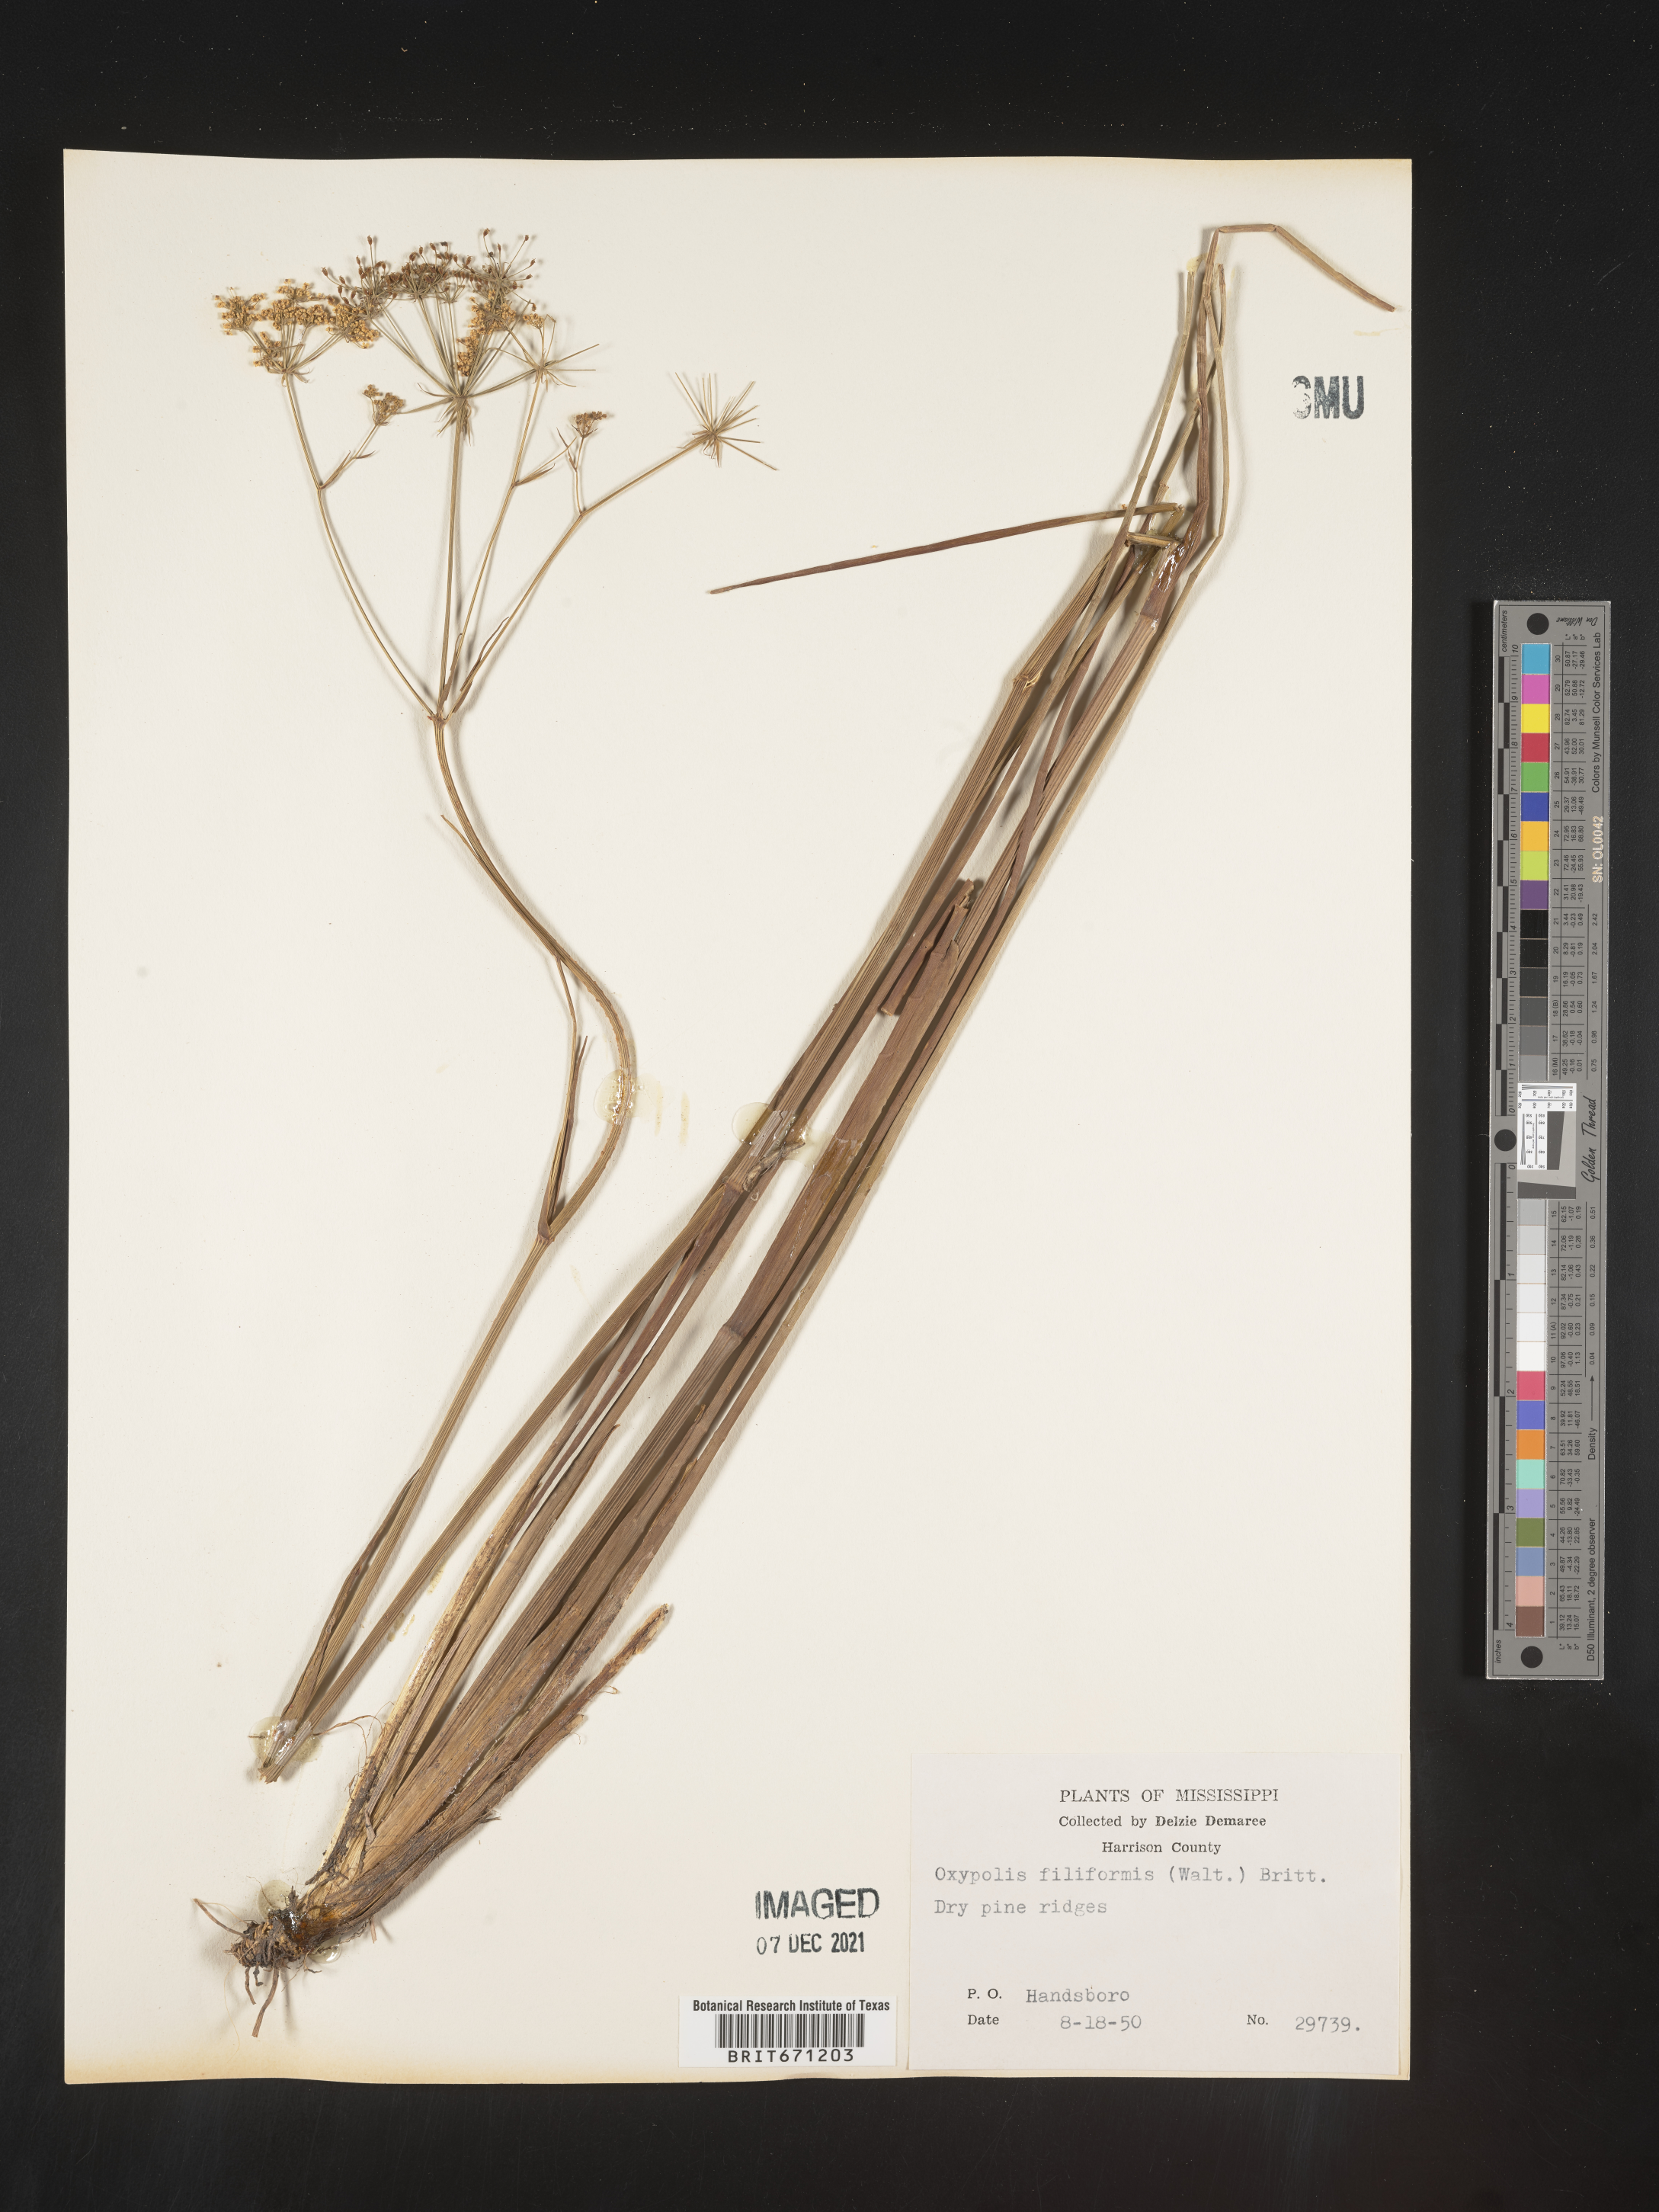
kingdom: Plantae
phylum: Tracheophyta
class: Magnoliopsida
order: Apiales
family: Apiaceae
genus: Tiedemannia
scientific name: Tiedemannia filiformis
